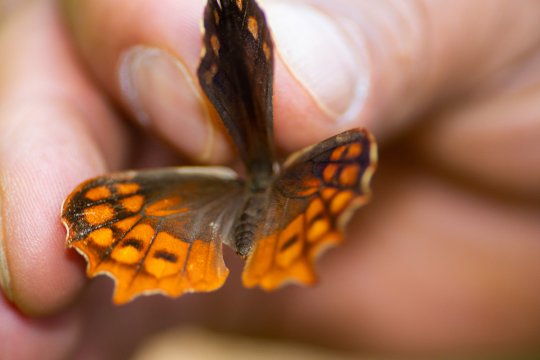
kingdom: Animalia
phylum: Arthropoda
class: Insecta
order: Lepidoptera
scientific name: Lepidoptera
